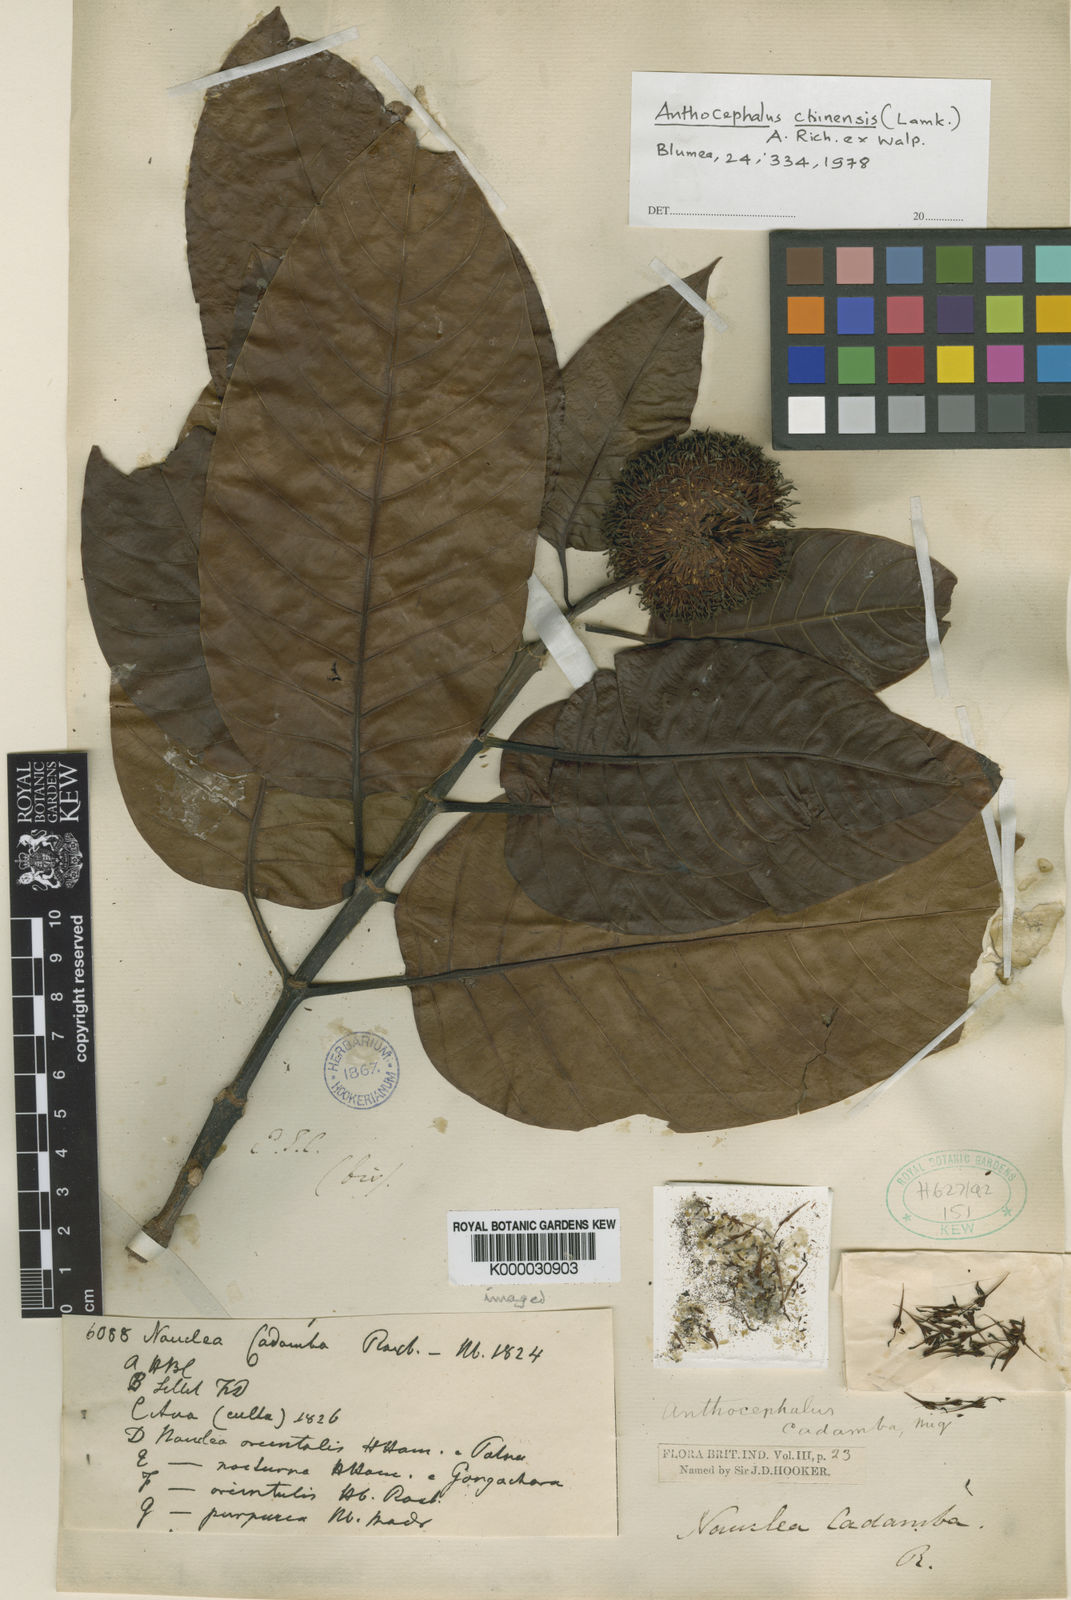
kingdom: Plantae
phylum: Tracheophyta
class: Magnoliopsida
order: Gentianales
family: Rubiaceae
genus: Neonauclea
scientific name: Neonauclea purpurea
